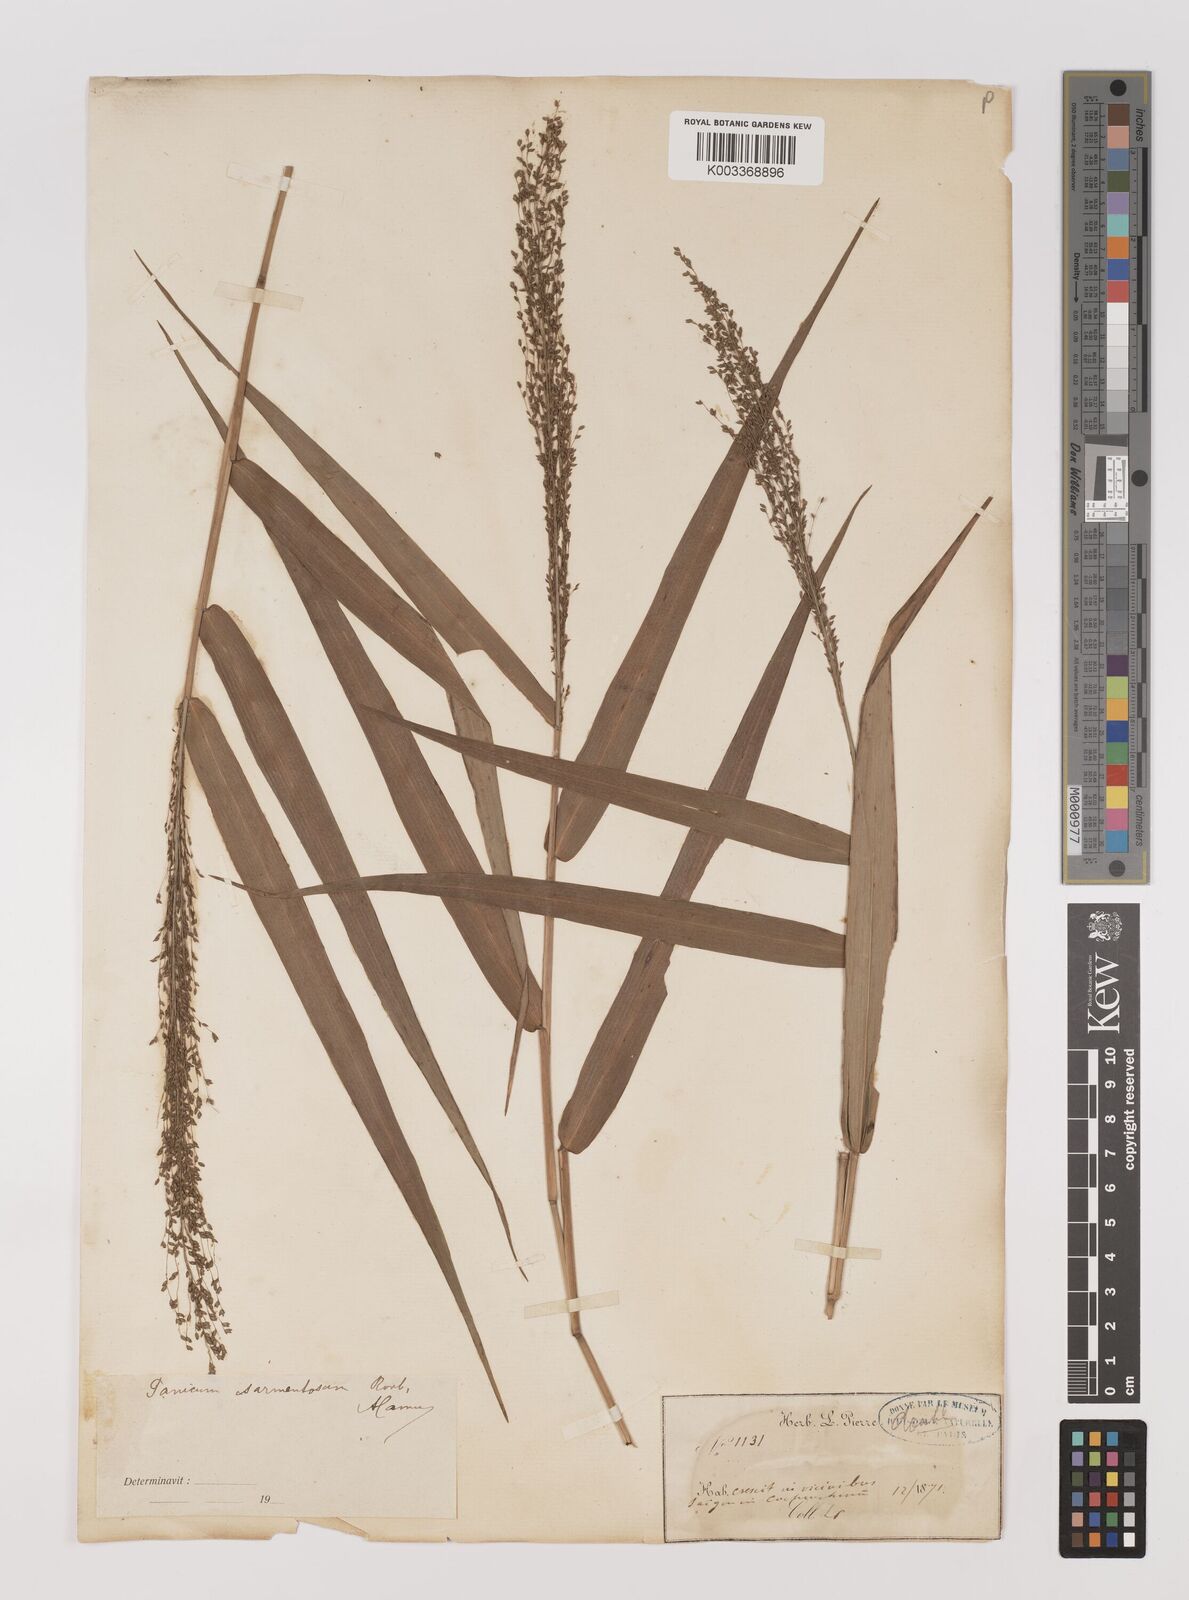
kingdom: Plantae
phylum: Tracheophyta
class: Liliopsida
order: Poales
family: Poaceae
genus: Panicum
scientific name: Panicum sarmentosum
